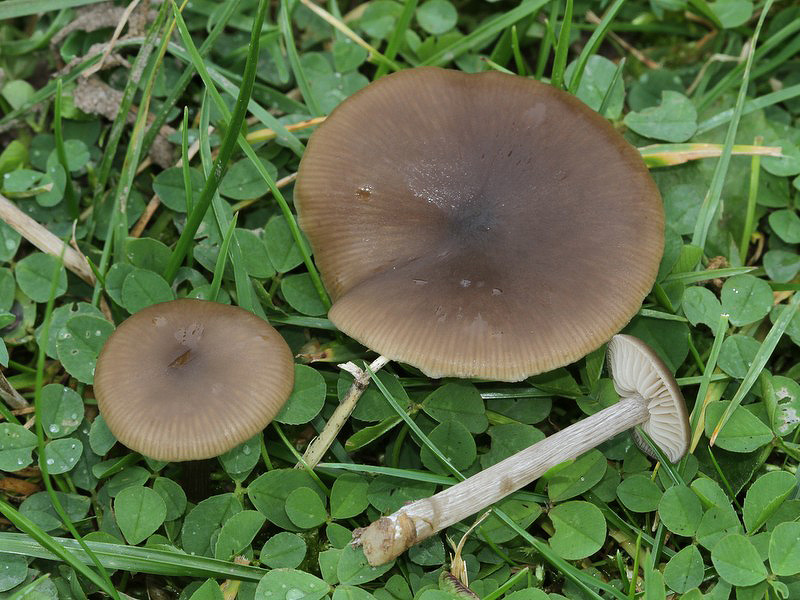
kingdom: Fungi
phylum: Basidiomycota
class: Agaricomycetes
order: Agaricales
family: Entolomataceae
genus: Entoloma
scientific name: Entoloma sericeum
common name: silkeglinsende rødblad
